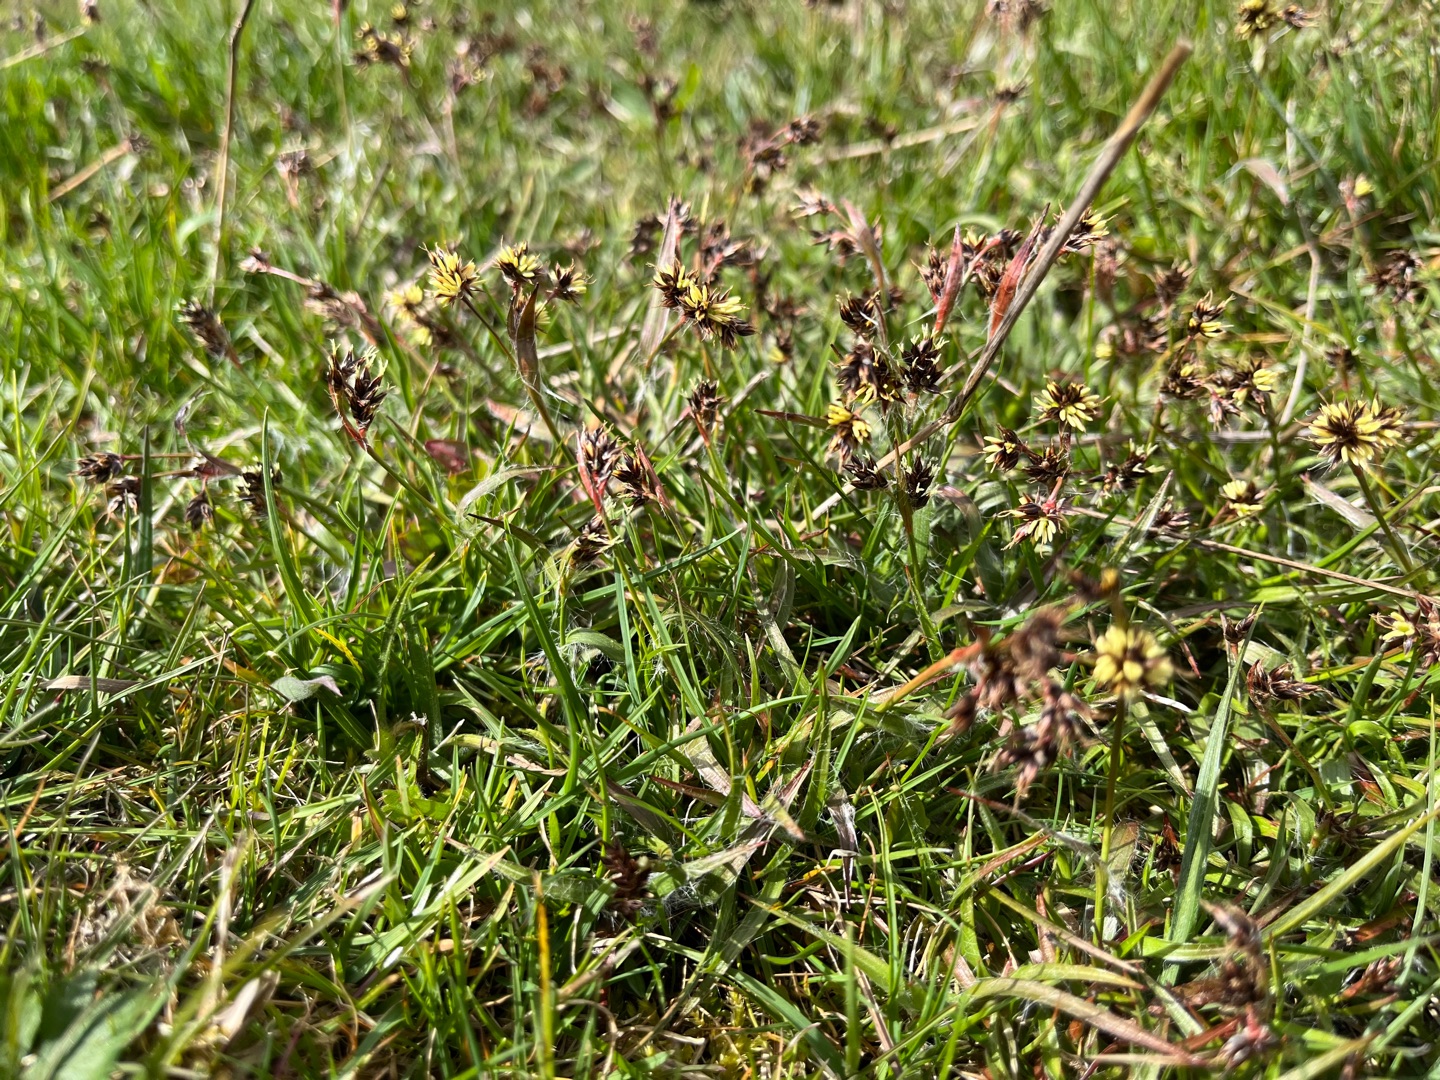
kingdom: Plantae
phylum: Tracheophyta
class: Liliopsida
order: Poales
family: Juncaceae
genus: Luzula
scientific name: Luzula campestris
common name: Mark-frytle
